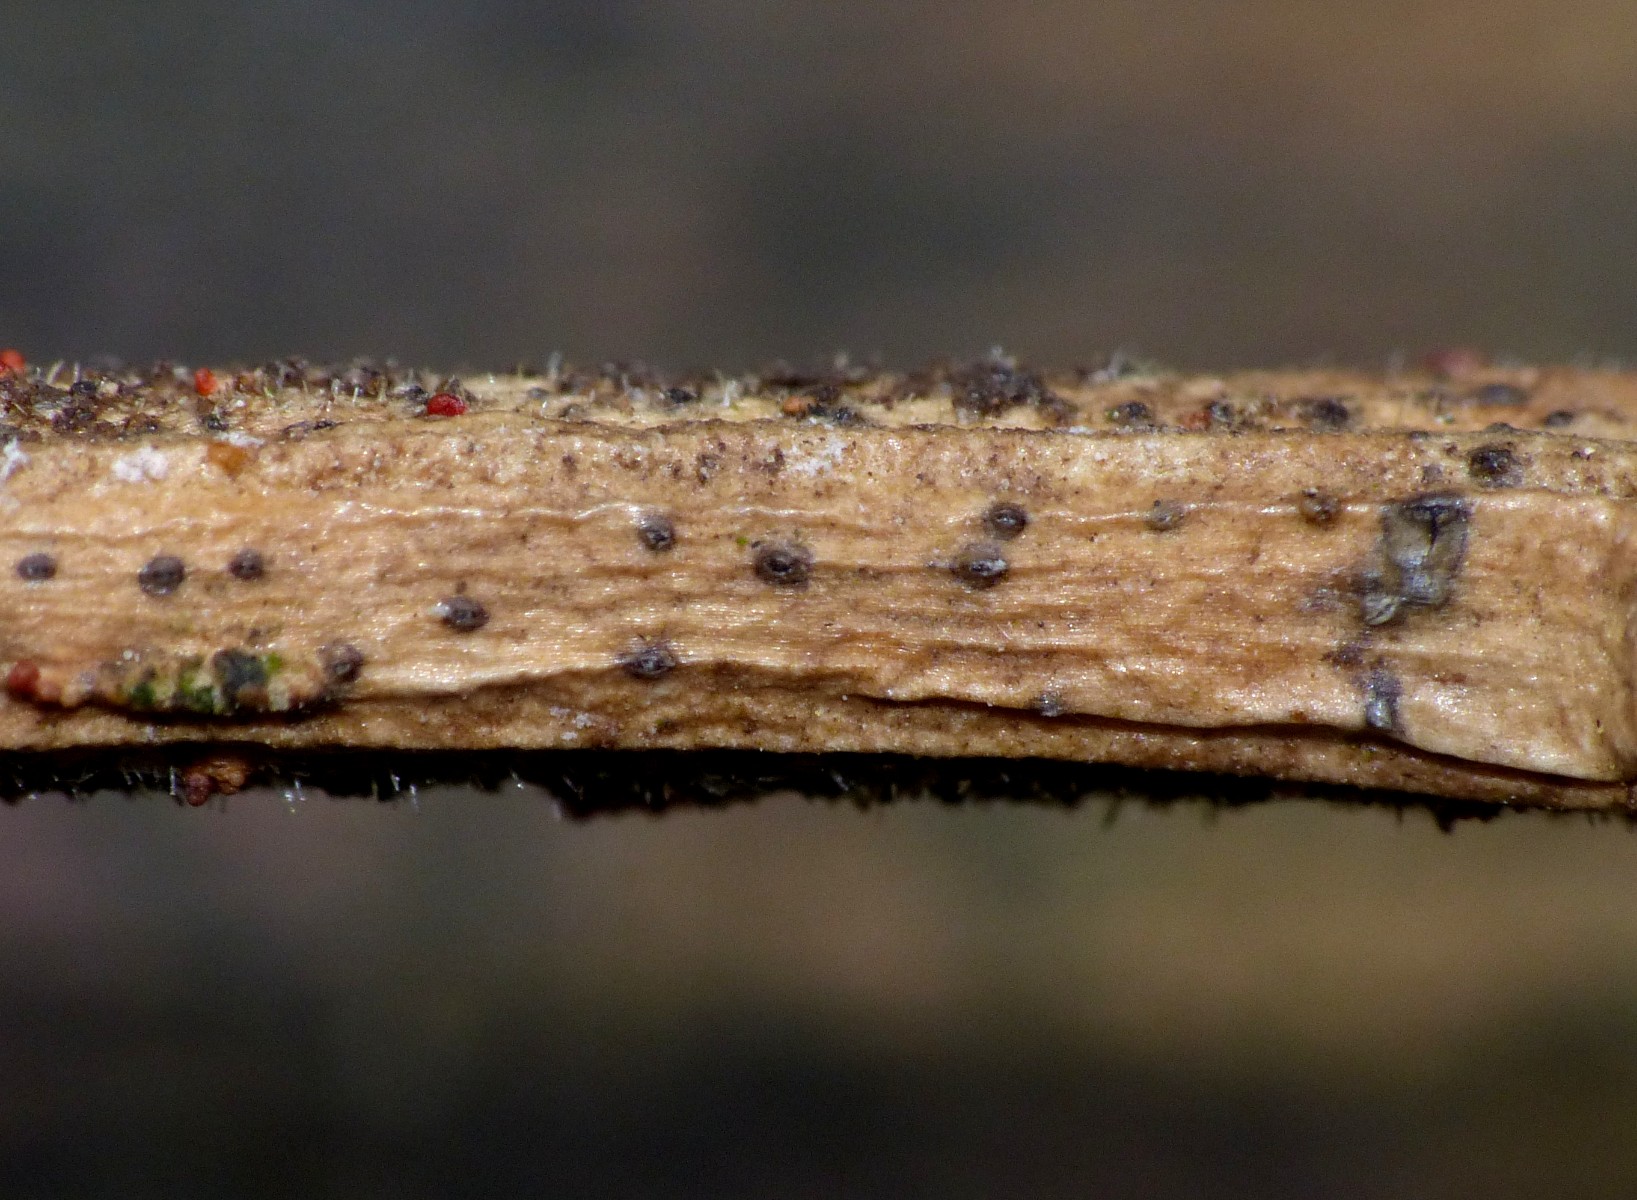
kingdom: Fungi
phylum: Ascomycota
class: Sordariomycetes
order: Diaporthales
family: Diaporthaceae
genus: Phomopsis
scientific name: Phomopsis
